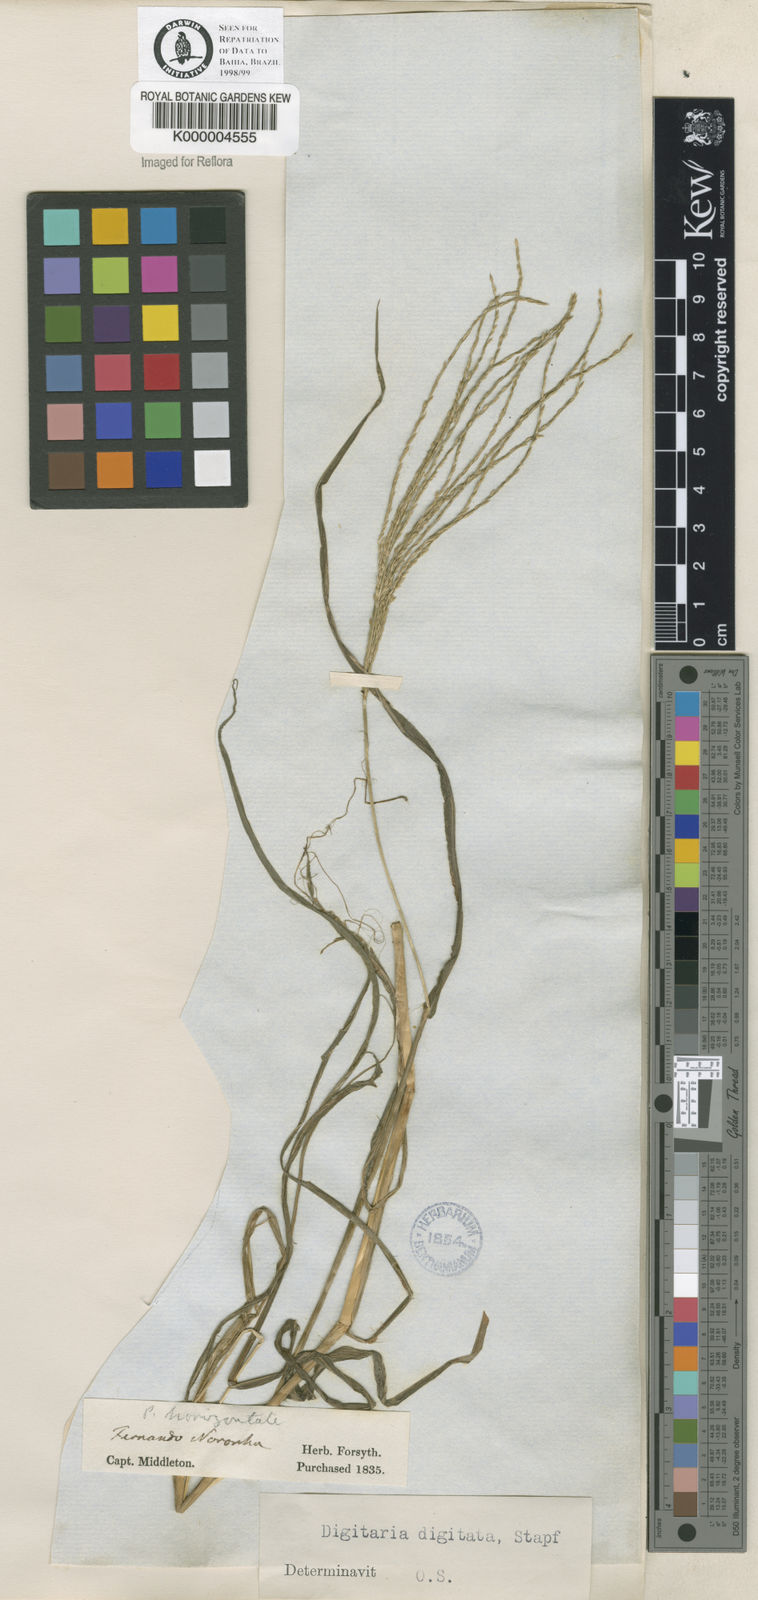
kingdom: Plantae
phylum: Tracheophyta
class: Liliopsida
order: Poales
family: Poaceae
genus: Digitaria
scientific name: Digitaria ciliaris
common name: Tropical finger-grass
